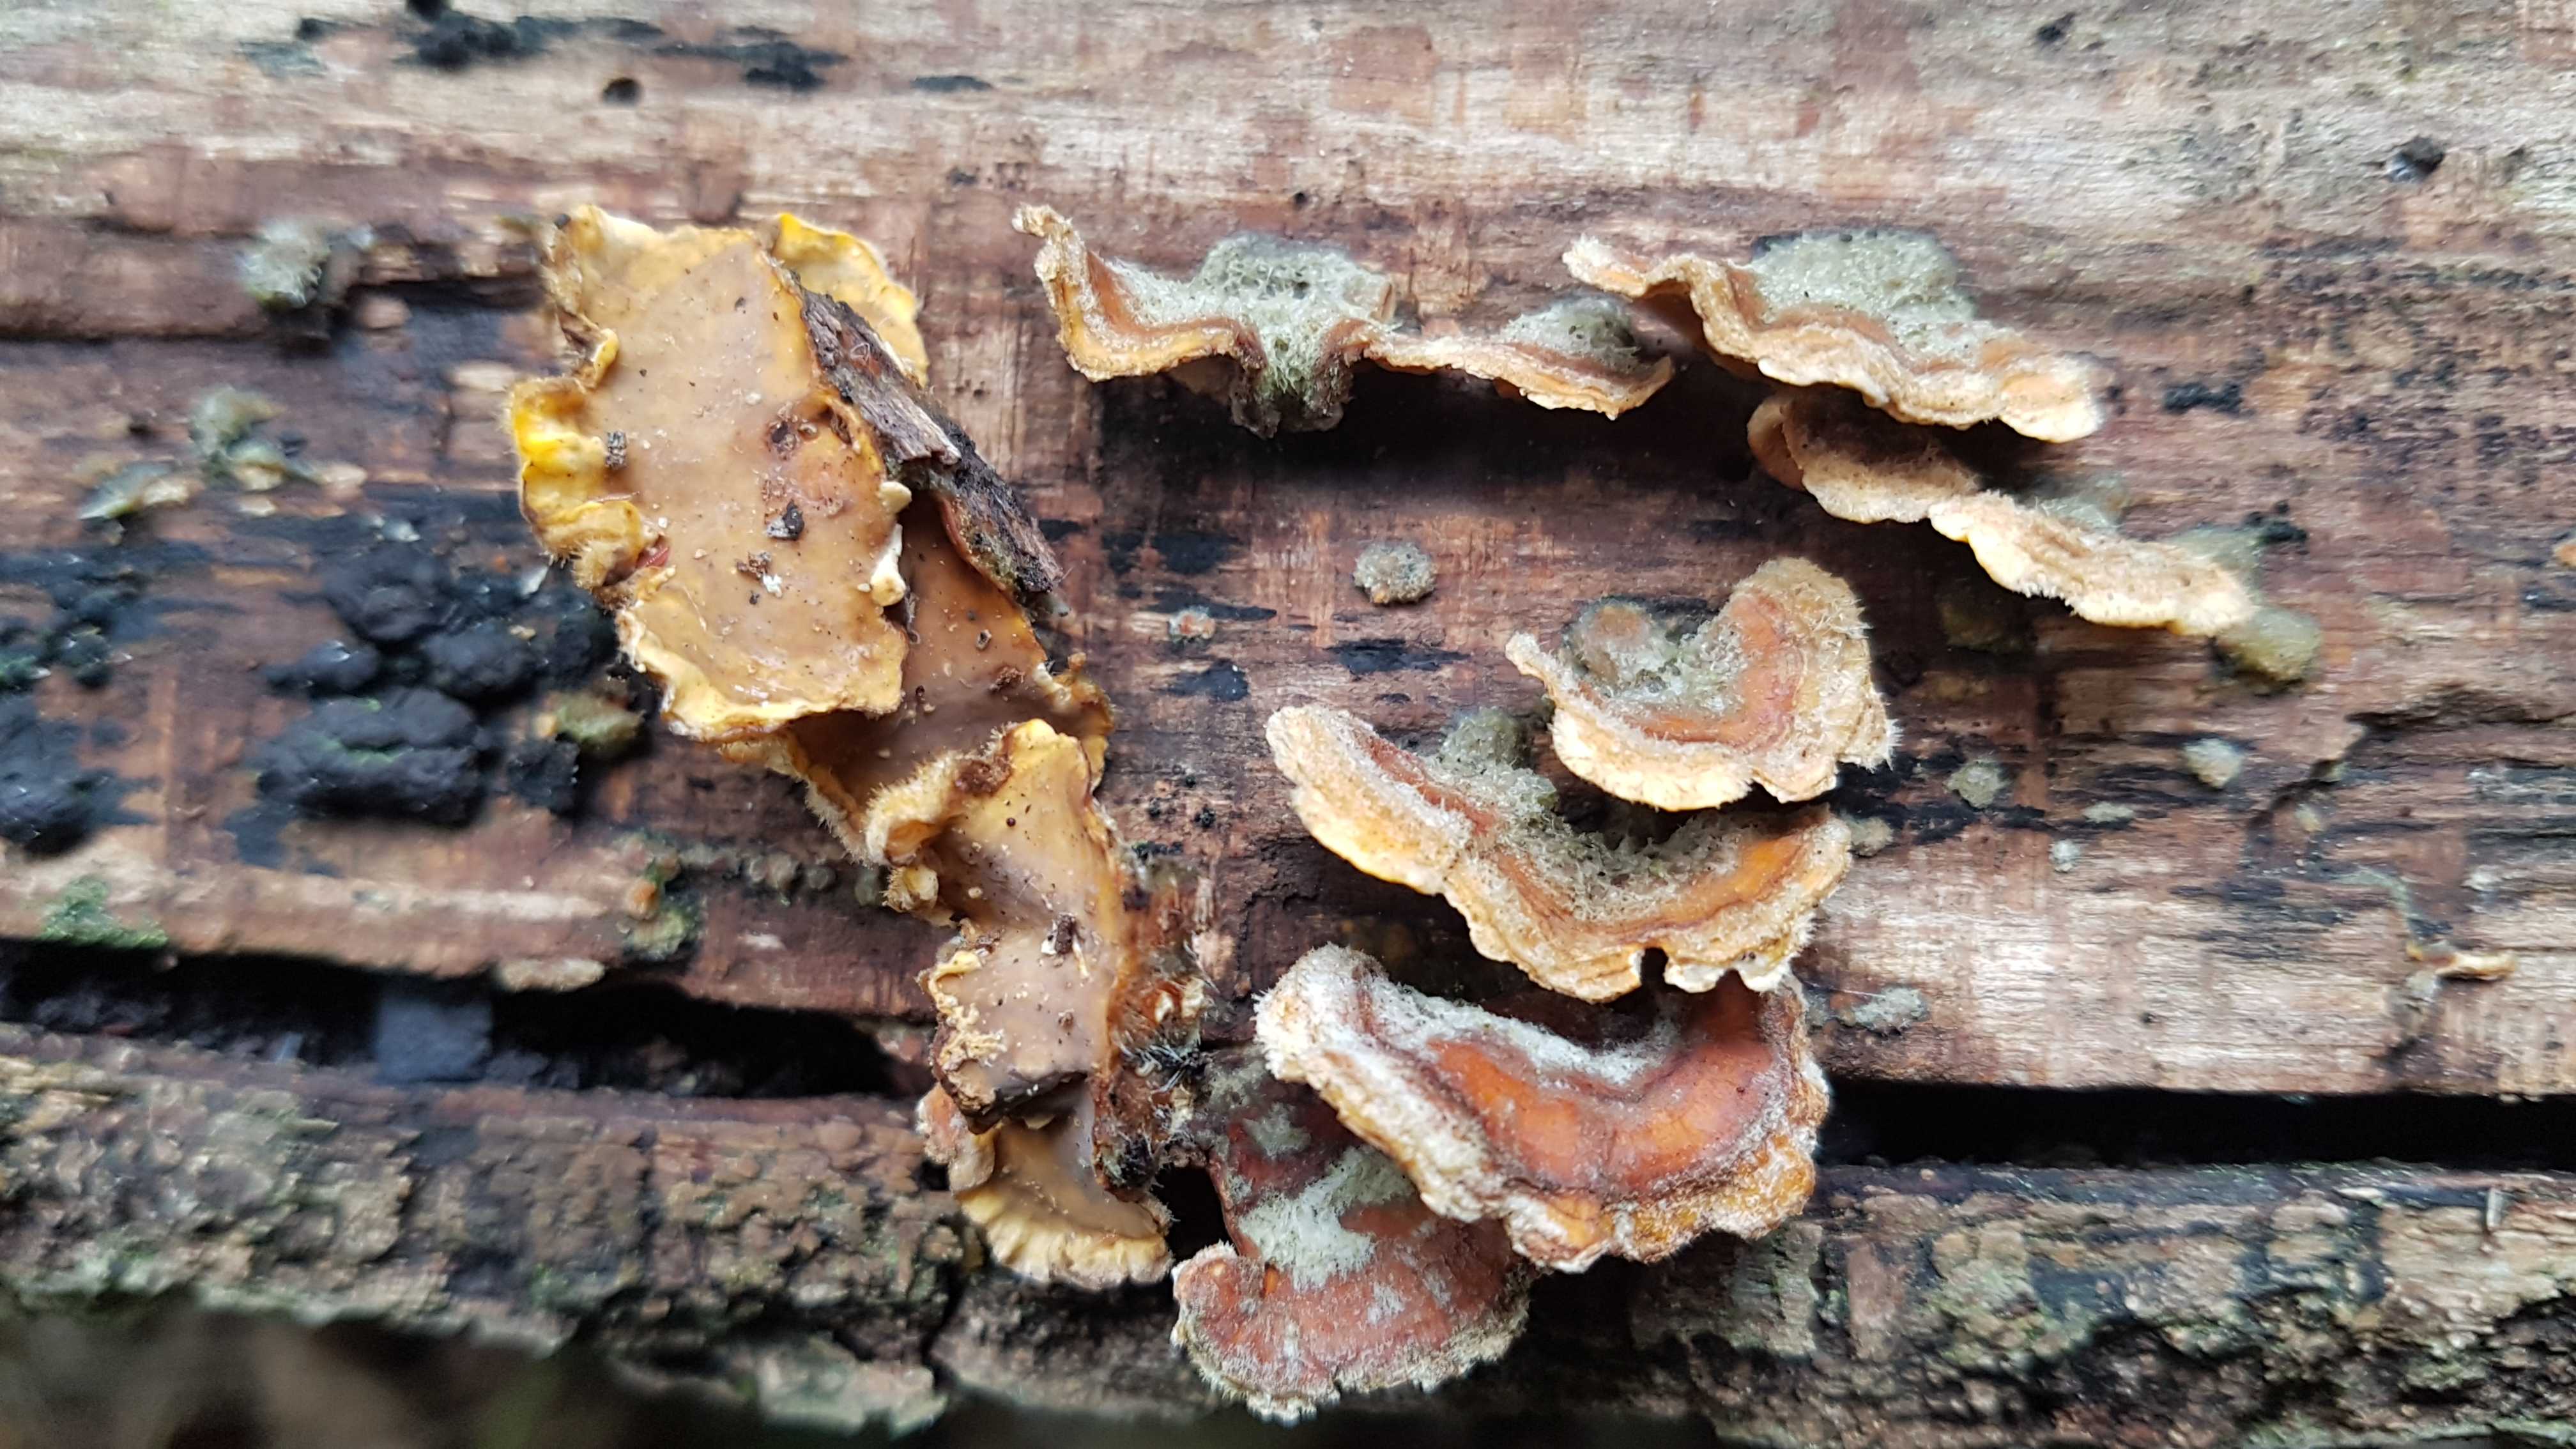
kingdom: Fungi
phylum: Basidiomycota
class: Agaricomycetes
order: Russulales
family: Stereaceae
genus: Stereum
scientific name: Stereum hirsutum
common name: håret lædersvamp
